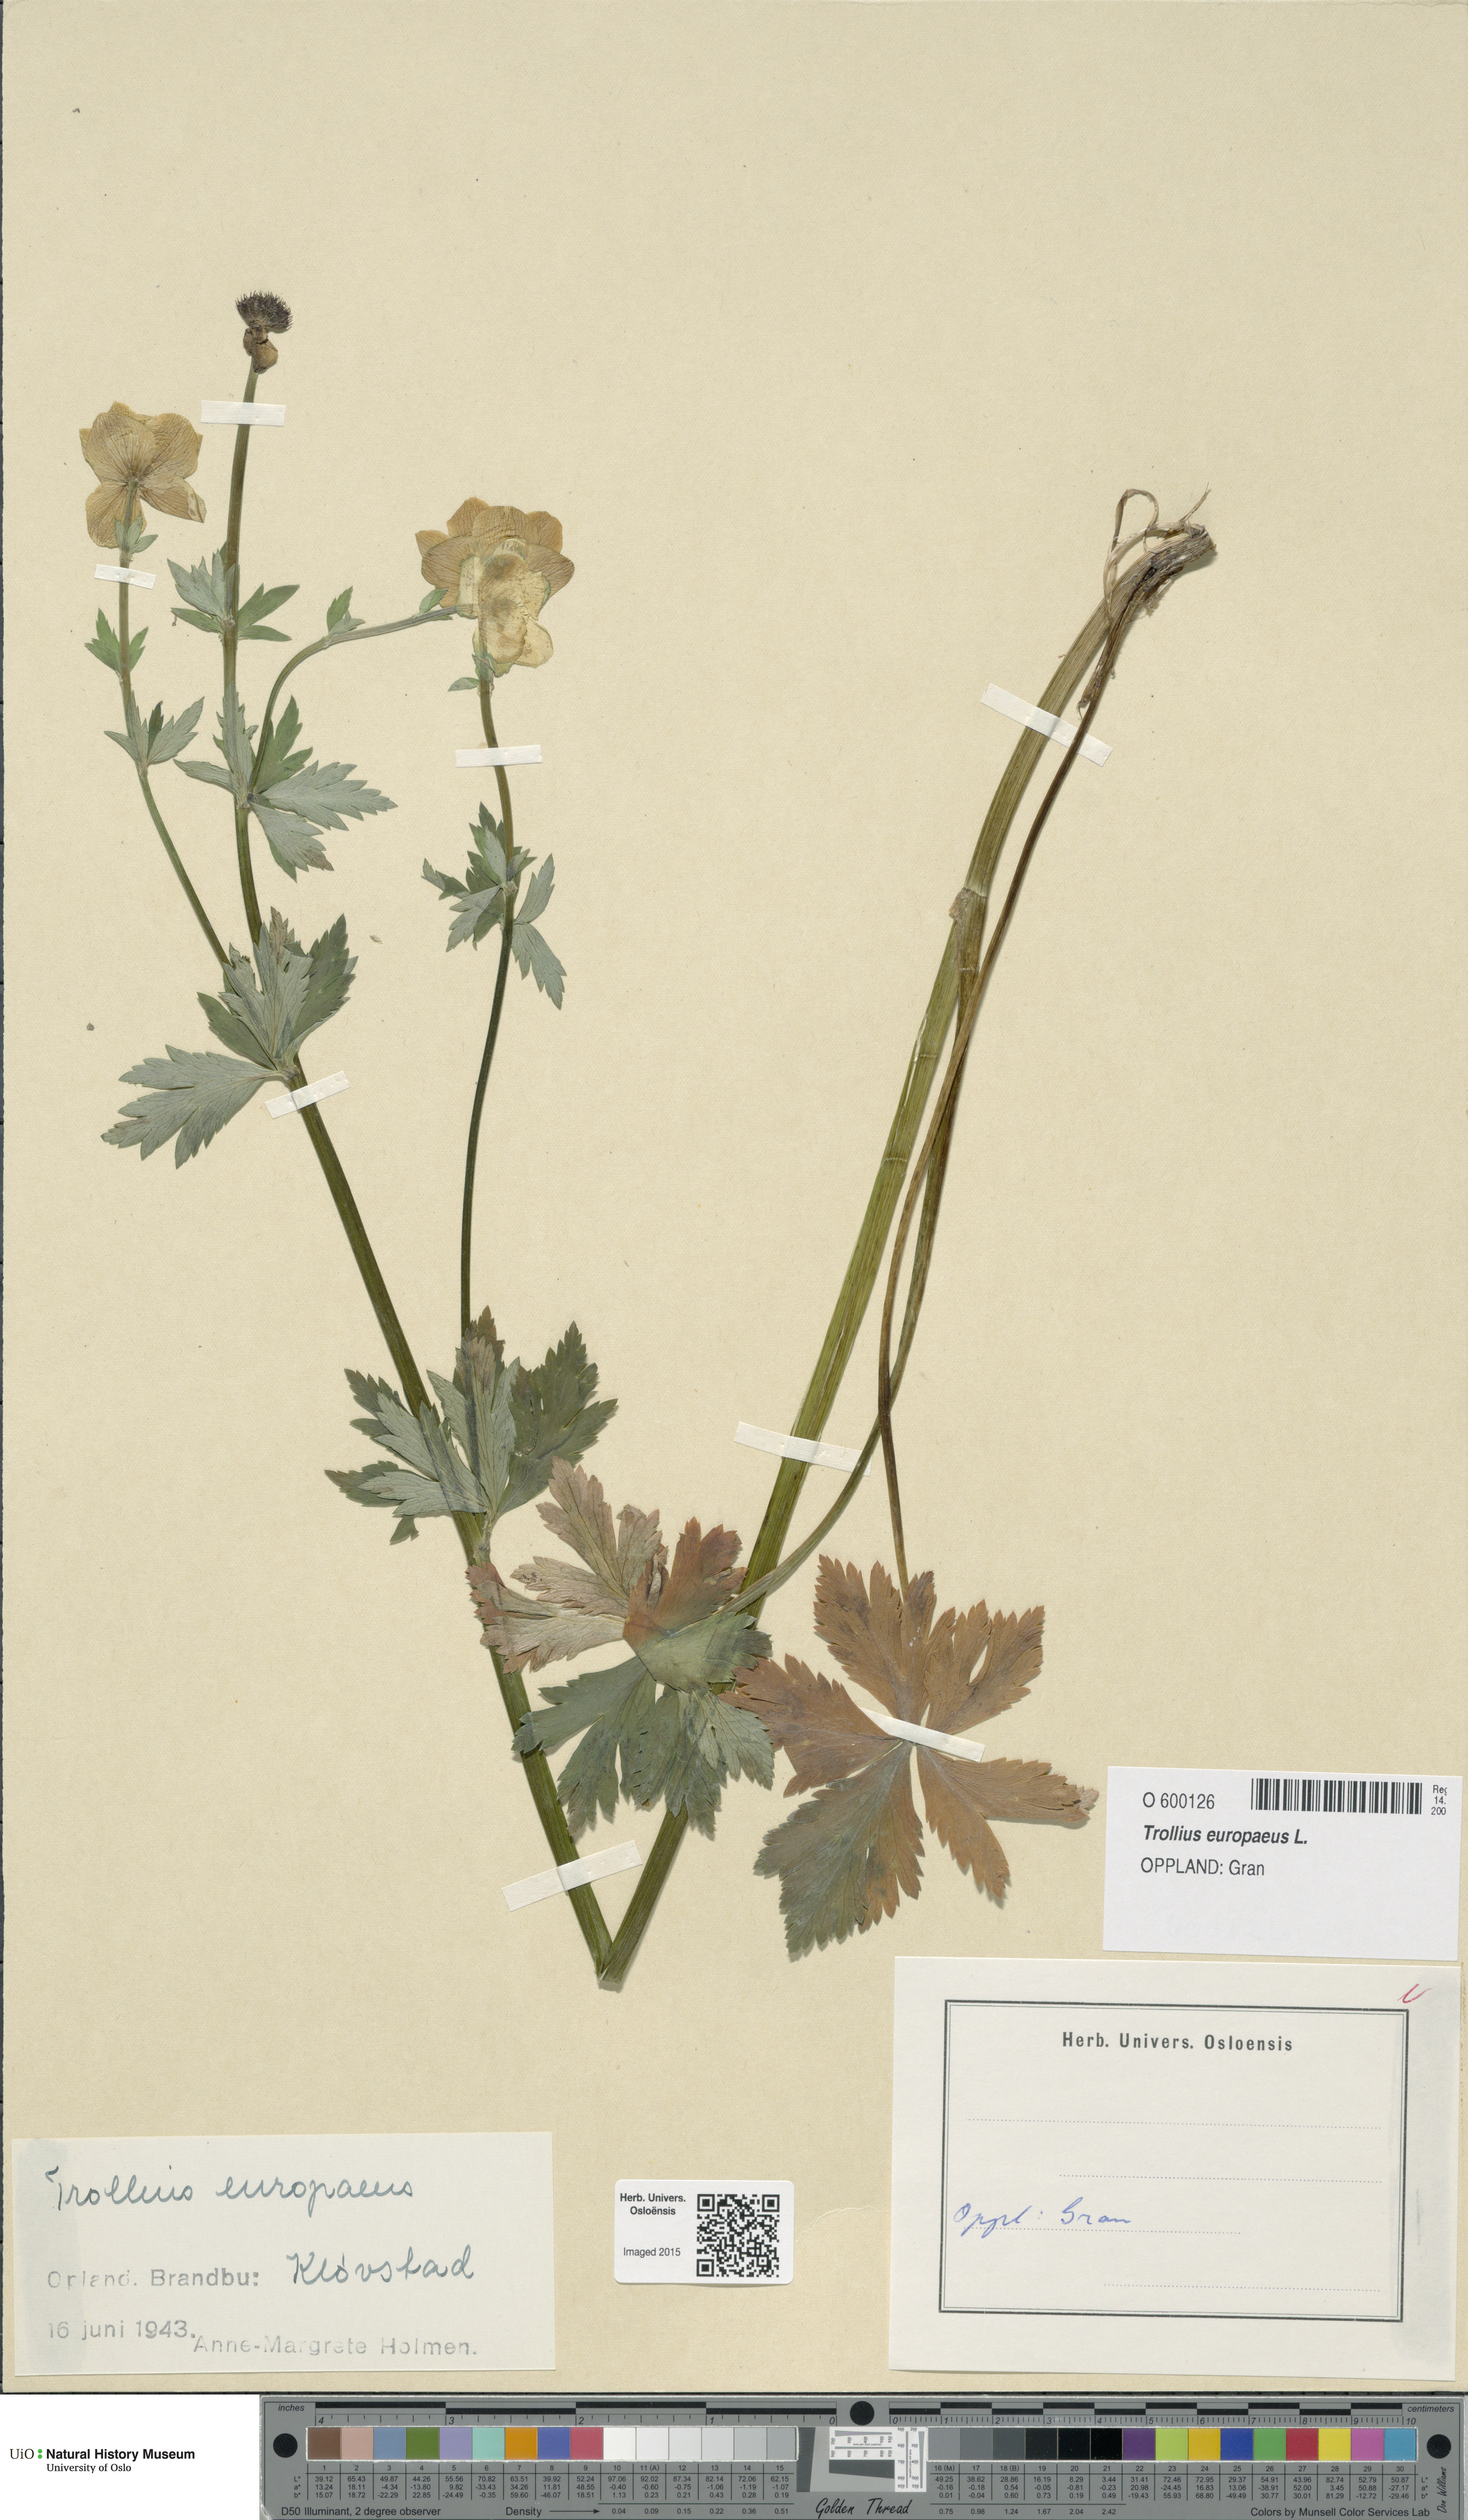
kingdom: Plantae
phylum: Tracheophyta
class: Magnoliopsida
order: Ranunculales
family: Ranunculaceae
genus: Trollius
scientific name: Trollius europaeus
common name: European globeflower
